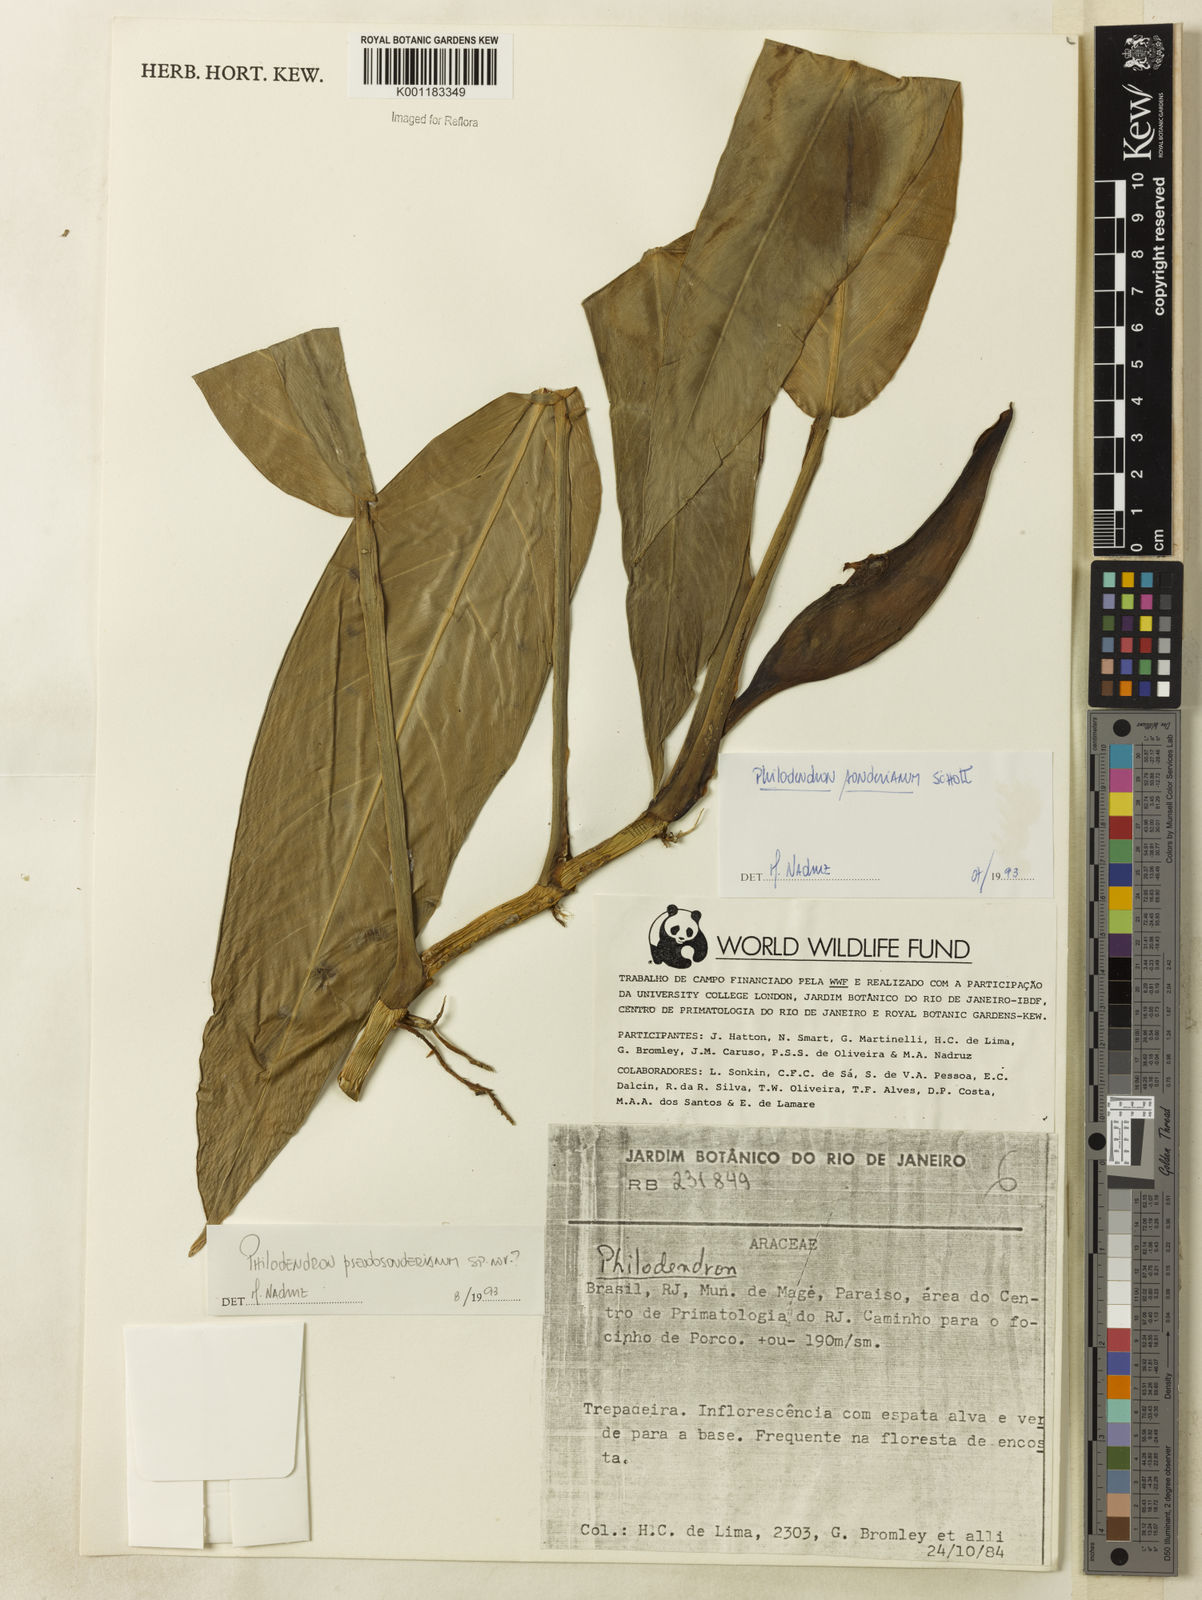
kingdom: Plantae
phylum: Tracheophyta
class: Liliopsida
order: Alismatales
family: Araceae
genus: Philodendron
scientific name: Philodendron
